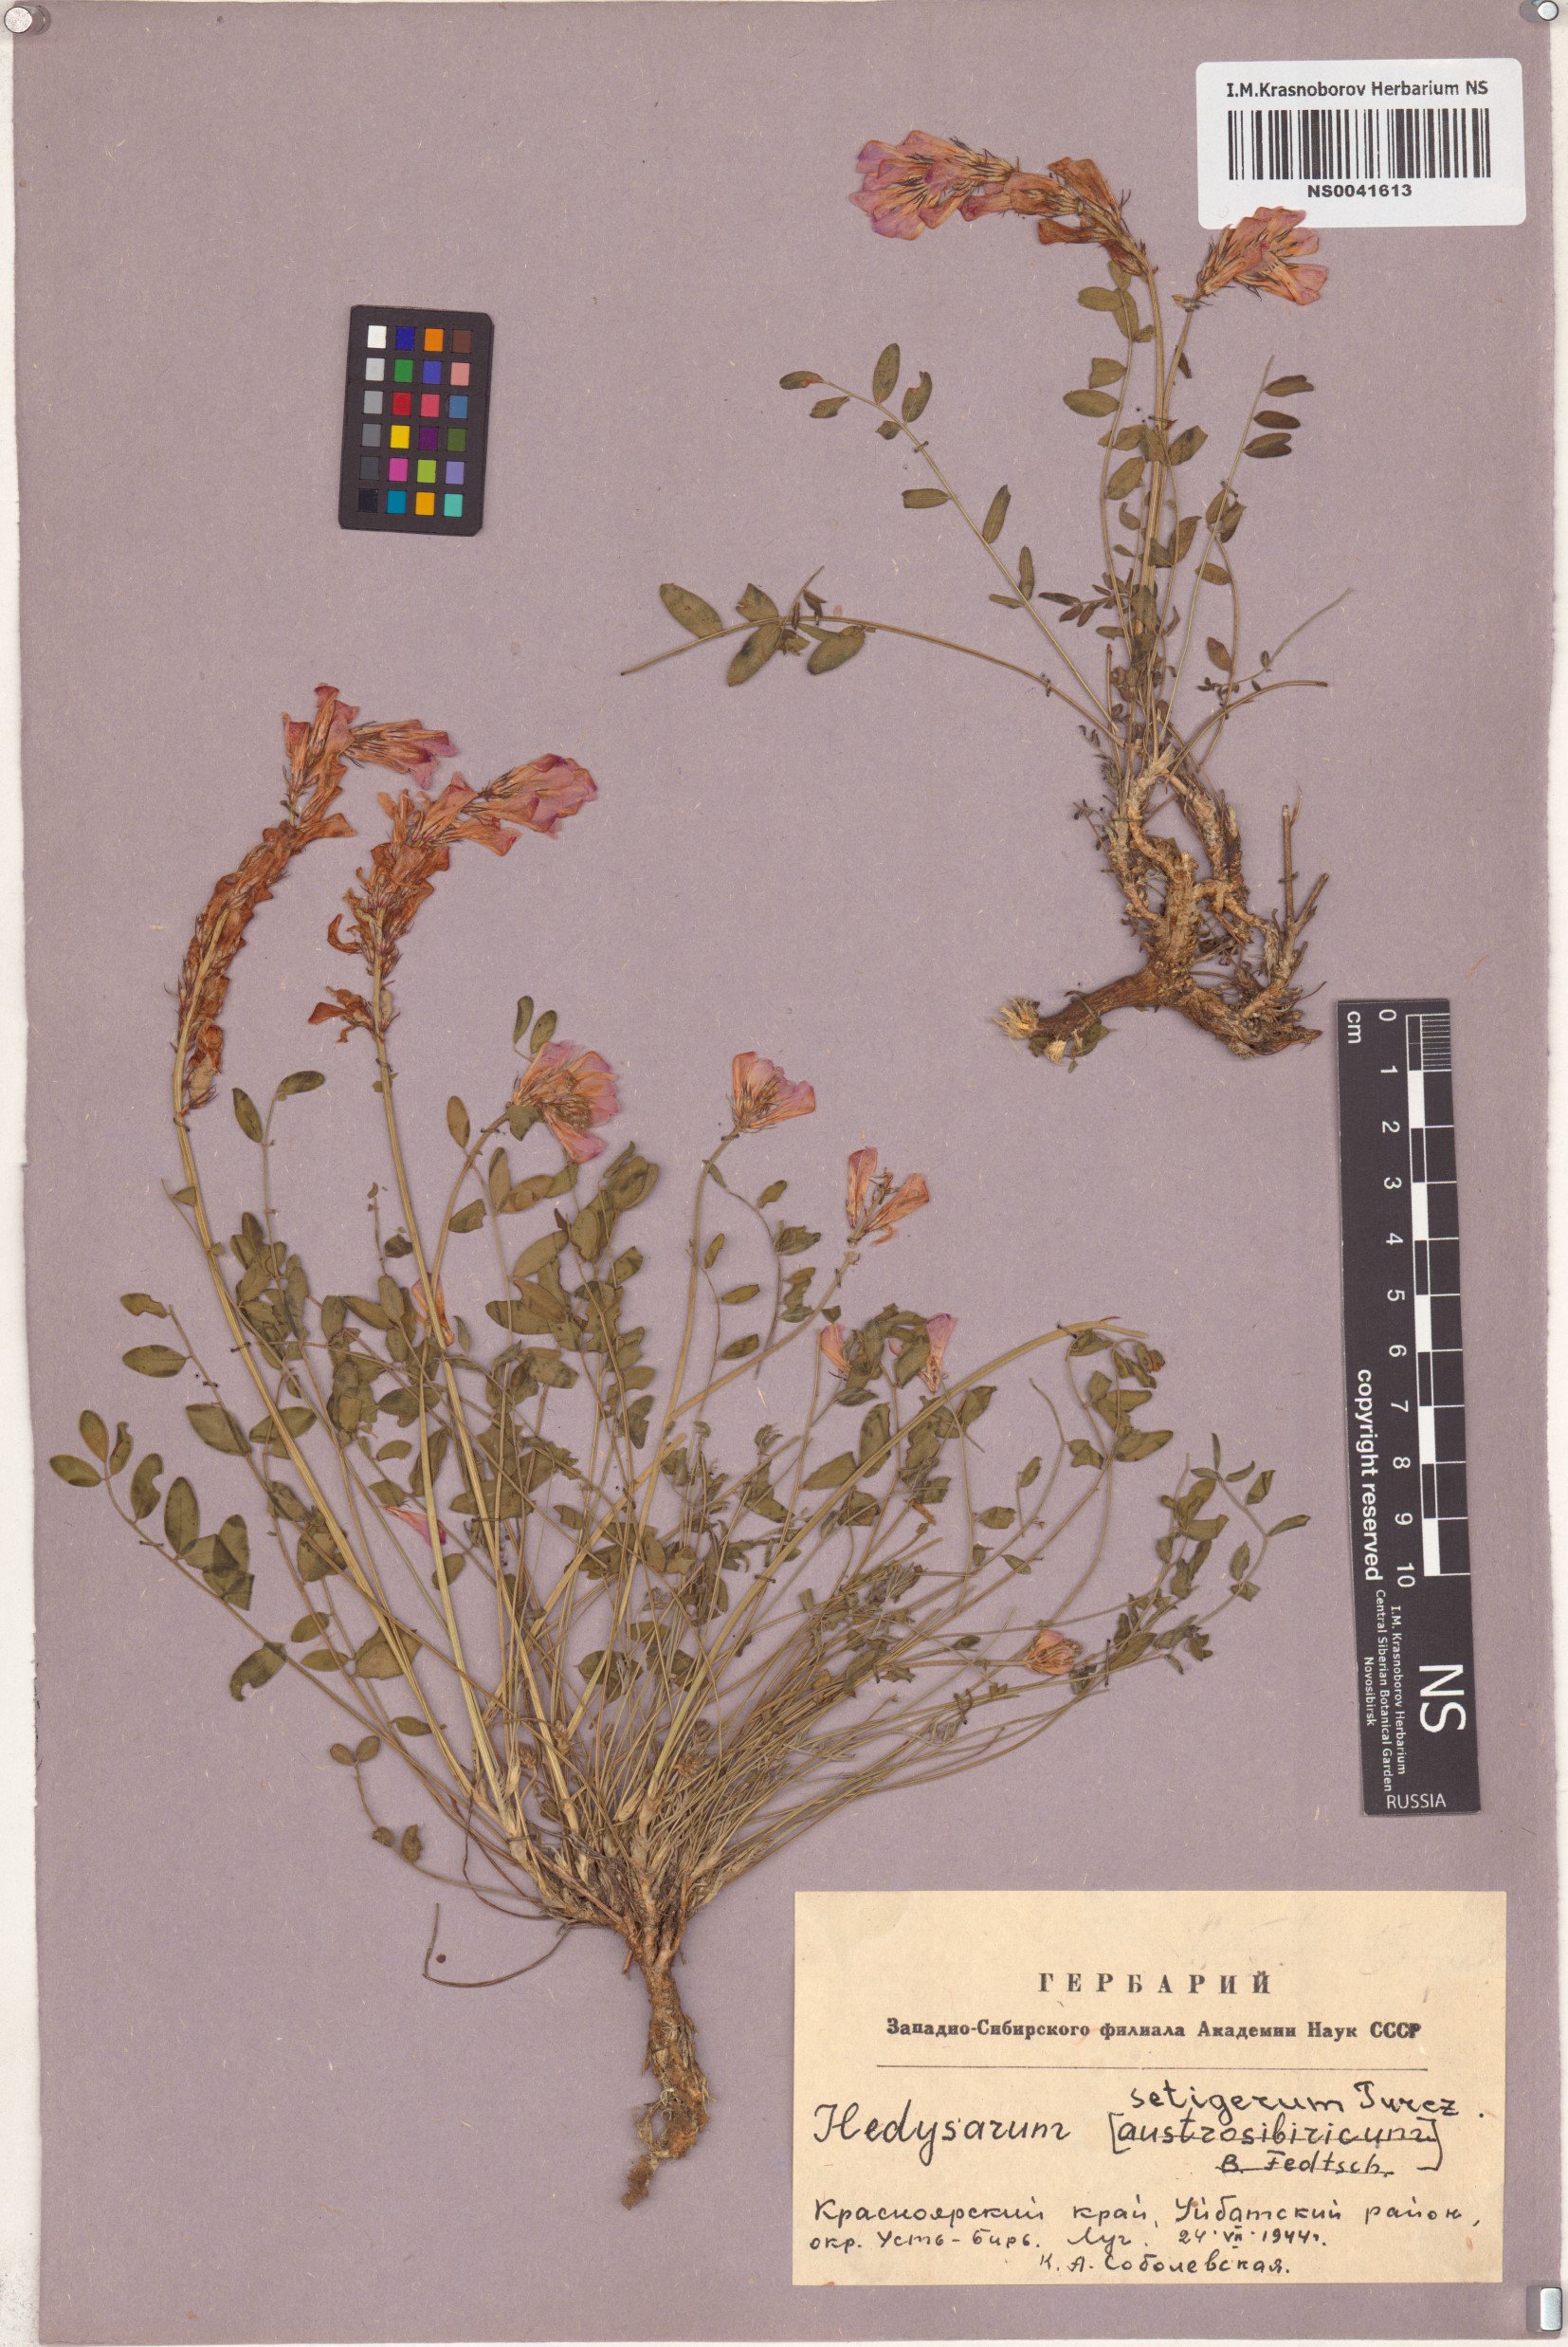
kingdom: Plantae
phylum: Tracheophyta
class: Magnoliopsida
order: Fabales
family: Fabaceae
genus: Hedysarum
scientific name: Hedysarum setigerum
